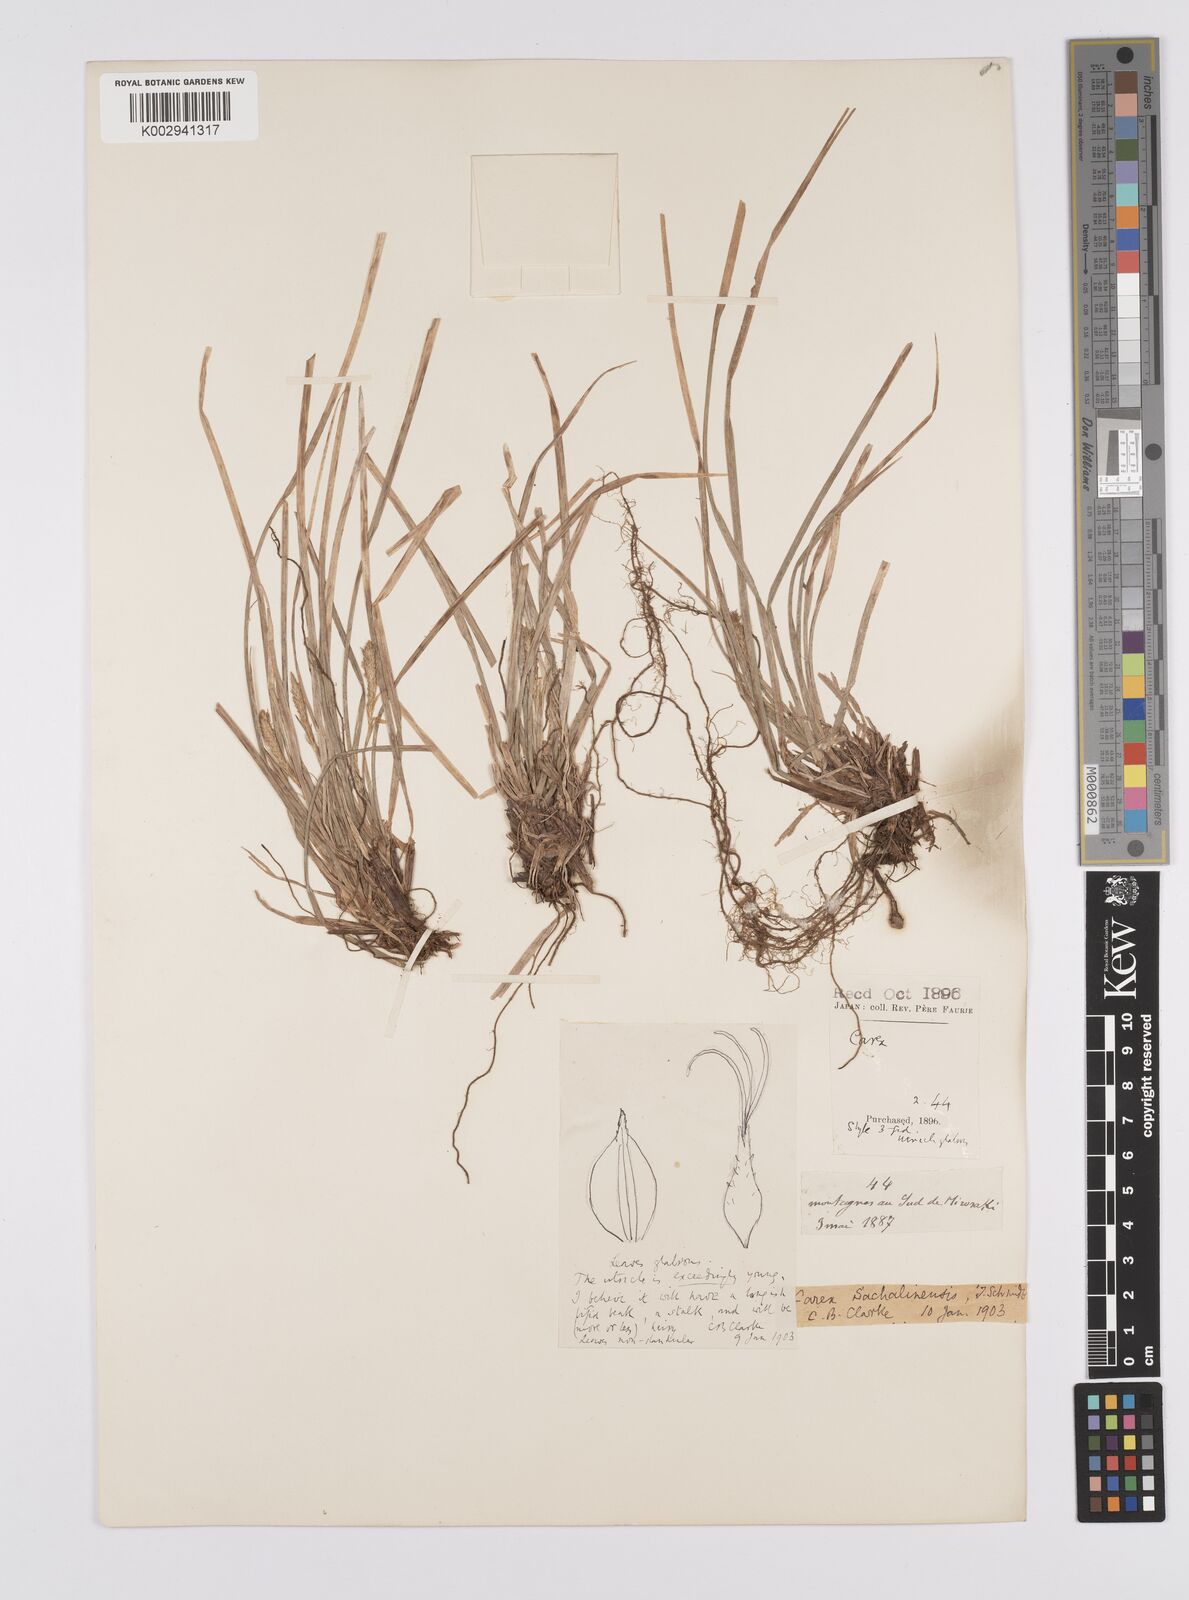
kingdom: Plantae
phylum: Tracheophyta
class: Liliopsida
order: Poales
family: Cyperaceae
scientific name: Cyperaceae
